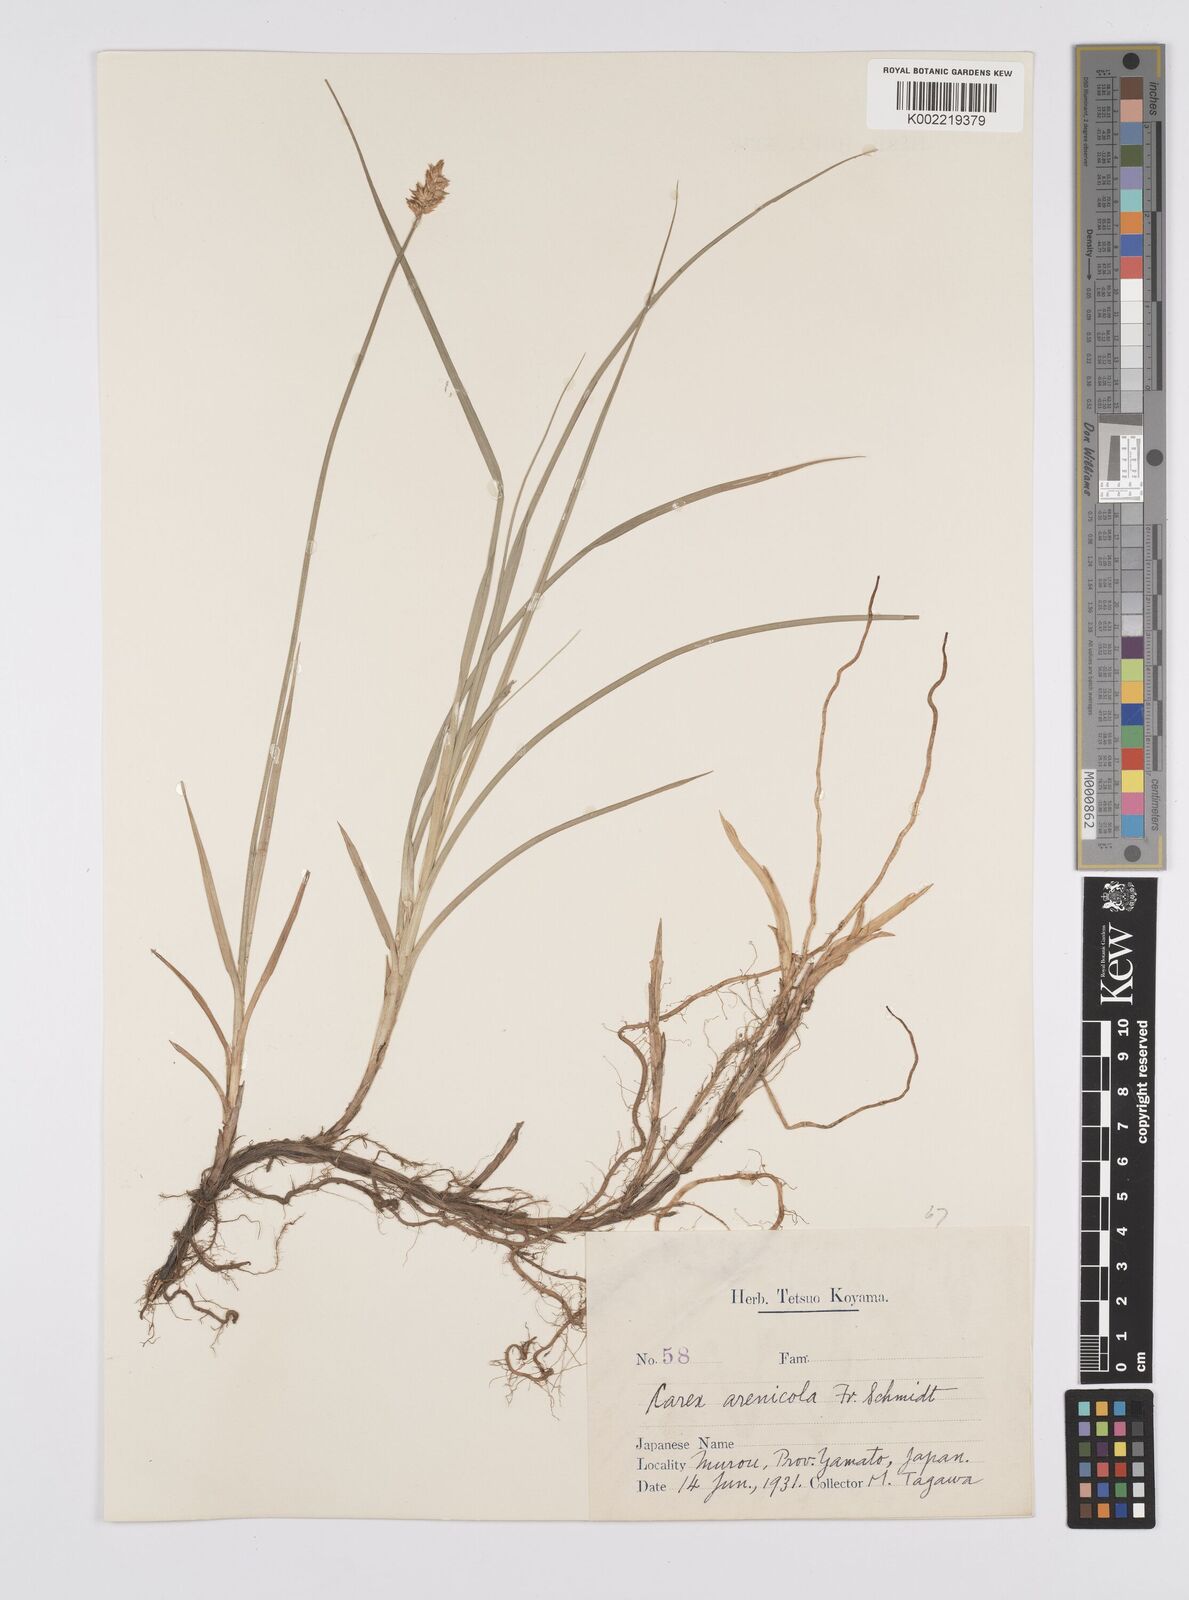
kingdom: Plantae
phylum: Tracheophyta
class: Liliopsida
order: Poales
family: Cyperaceae
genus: Carex
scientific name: Carex arenicola
